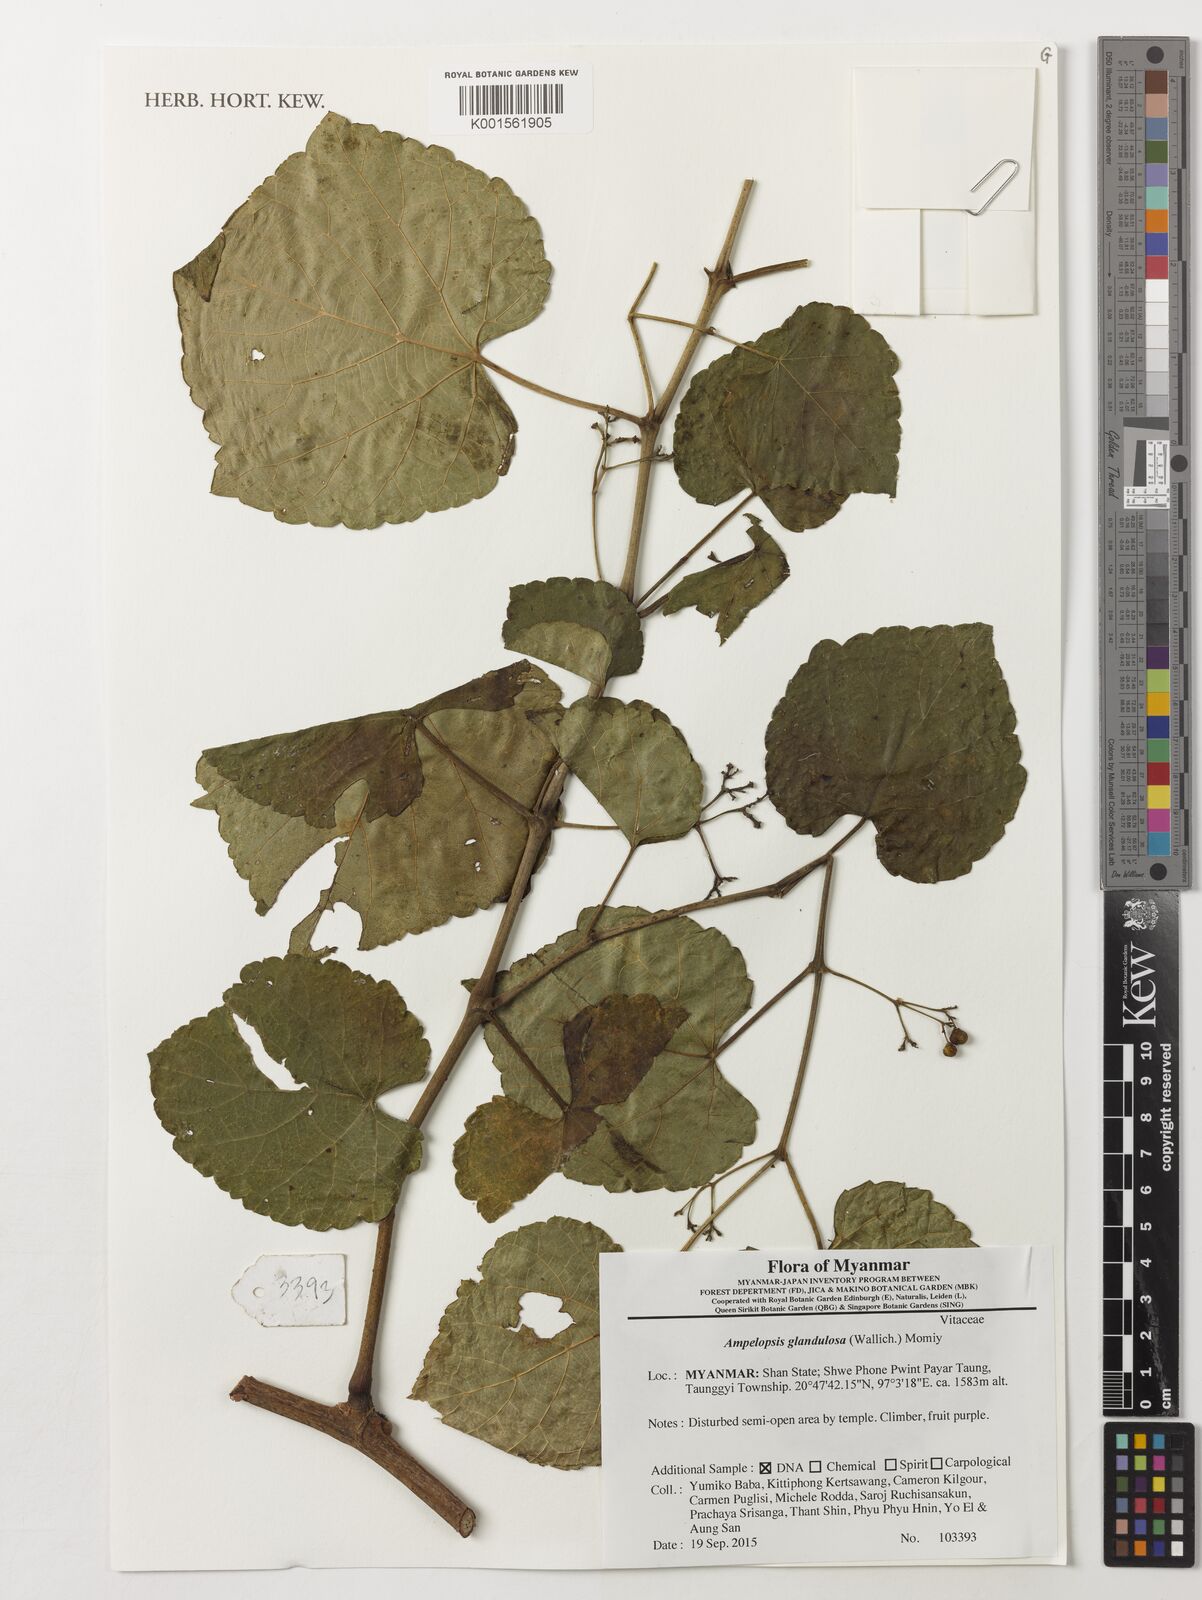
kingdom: Plantae
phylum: Tracheophyta
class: Magnoliopsida
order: Vitales
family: Vitaceae
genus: Ampelopsis
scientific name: Ampelopsis glandulosa
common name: Amur peppervine
